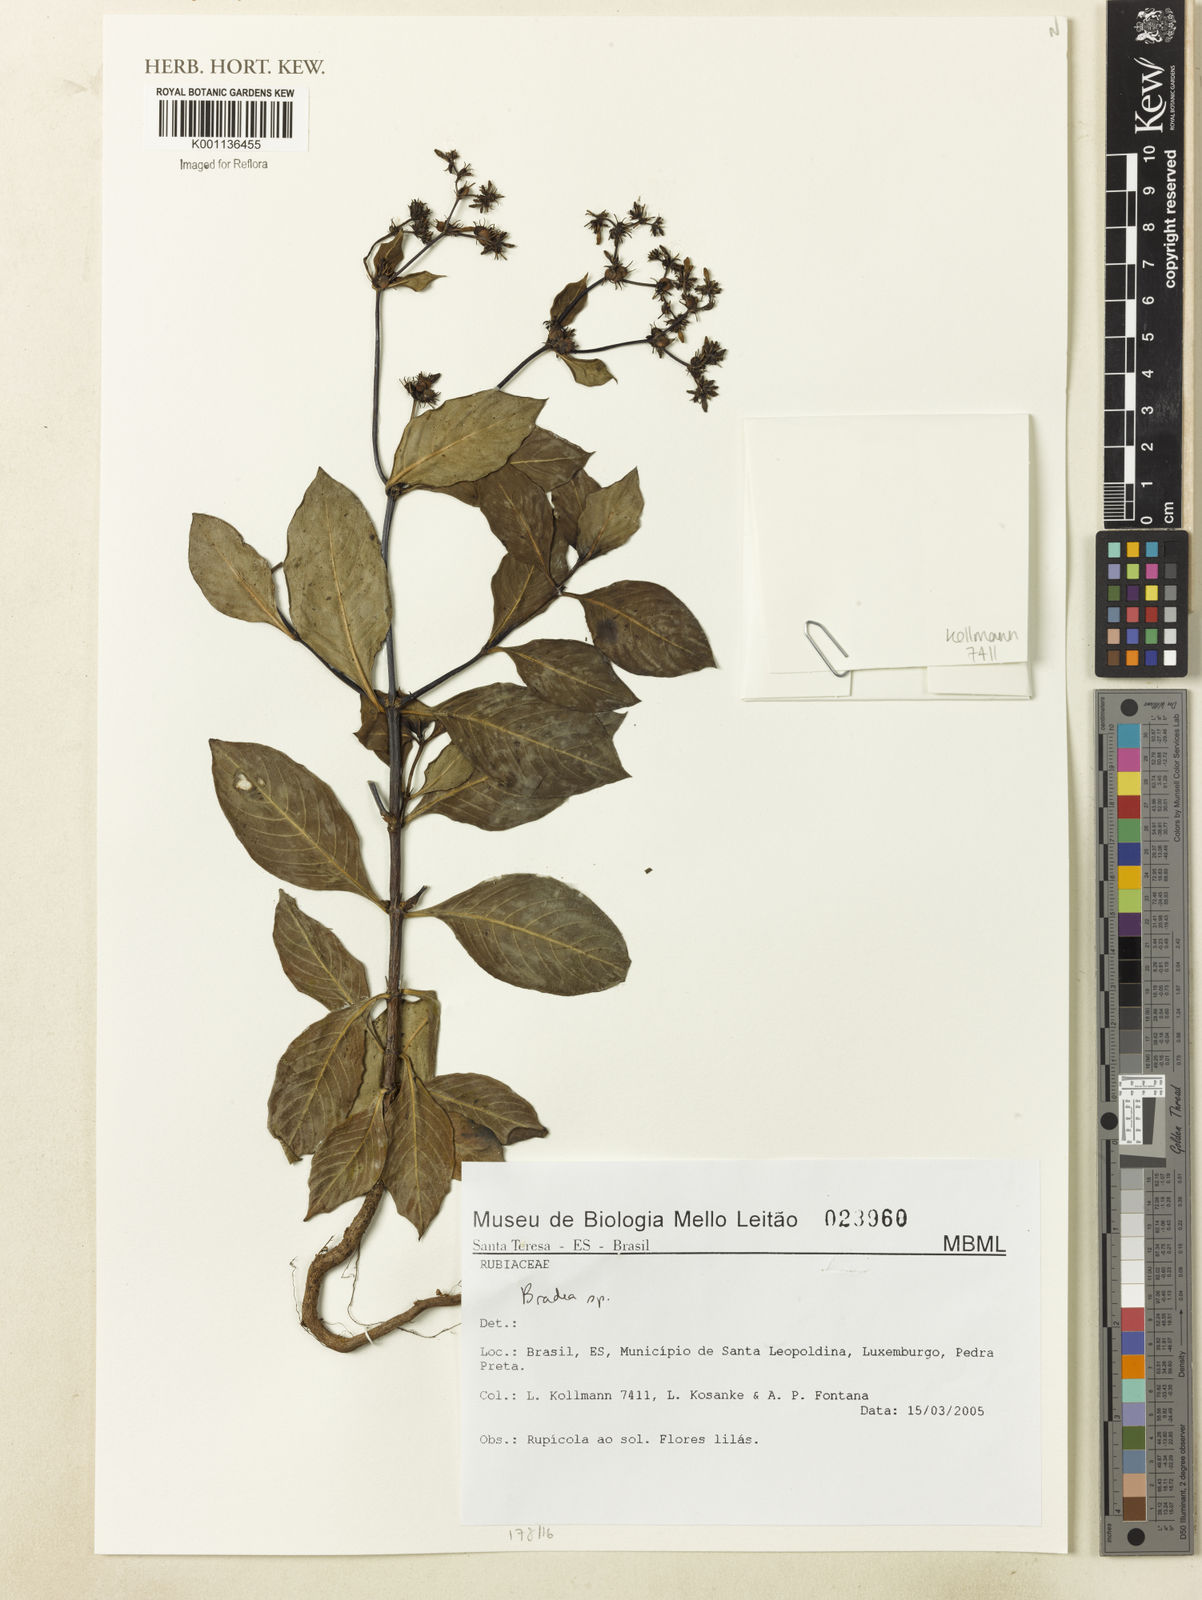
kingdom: Plantae
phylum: Tracheophyta
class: Magnoliopsida
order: Gentianales
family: Rubiaceae
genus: Bradea
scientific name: Bradea
